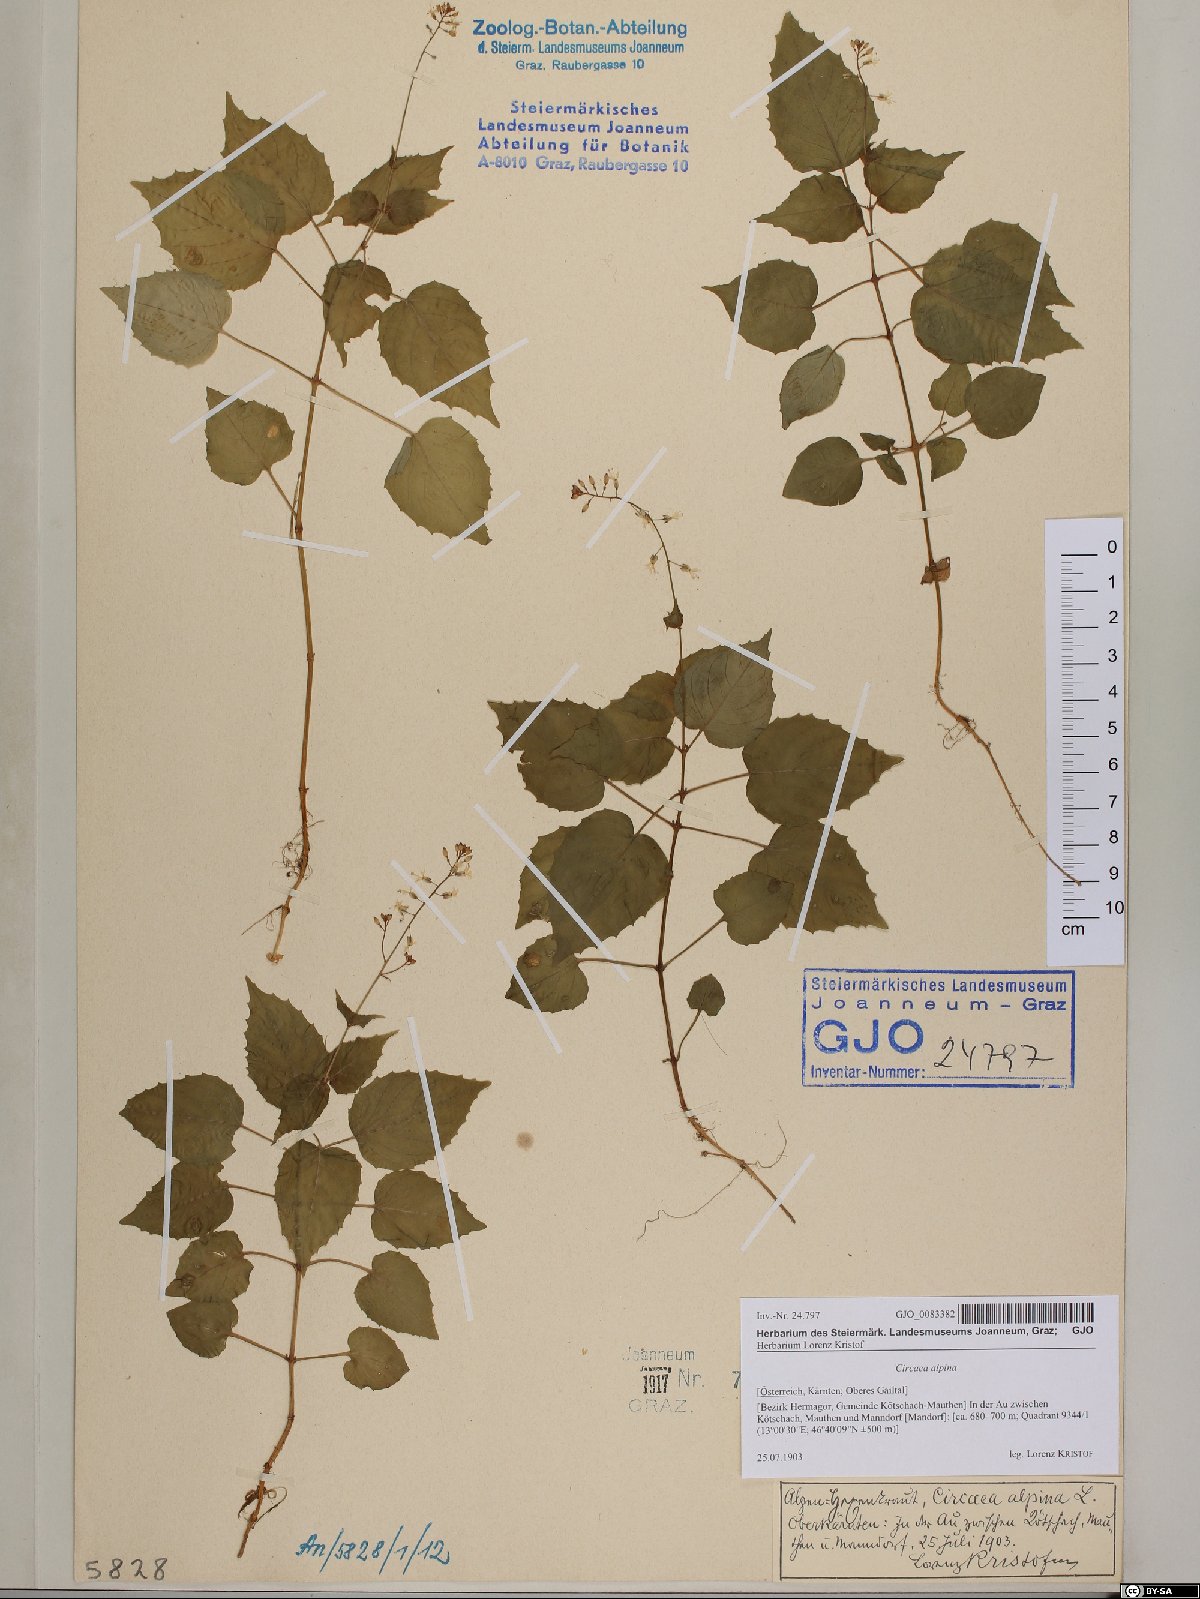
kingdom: Plantae
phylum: Tracheophyta
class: Magnoliopsida
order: Myrtales
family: Onagraceae
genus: Circaea
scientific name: Circaea alpina
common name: Alpine enchanter's-nightshade
